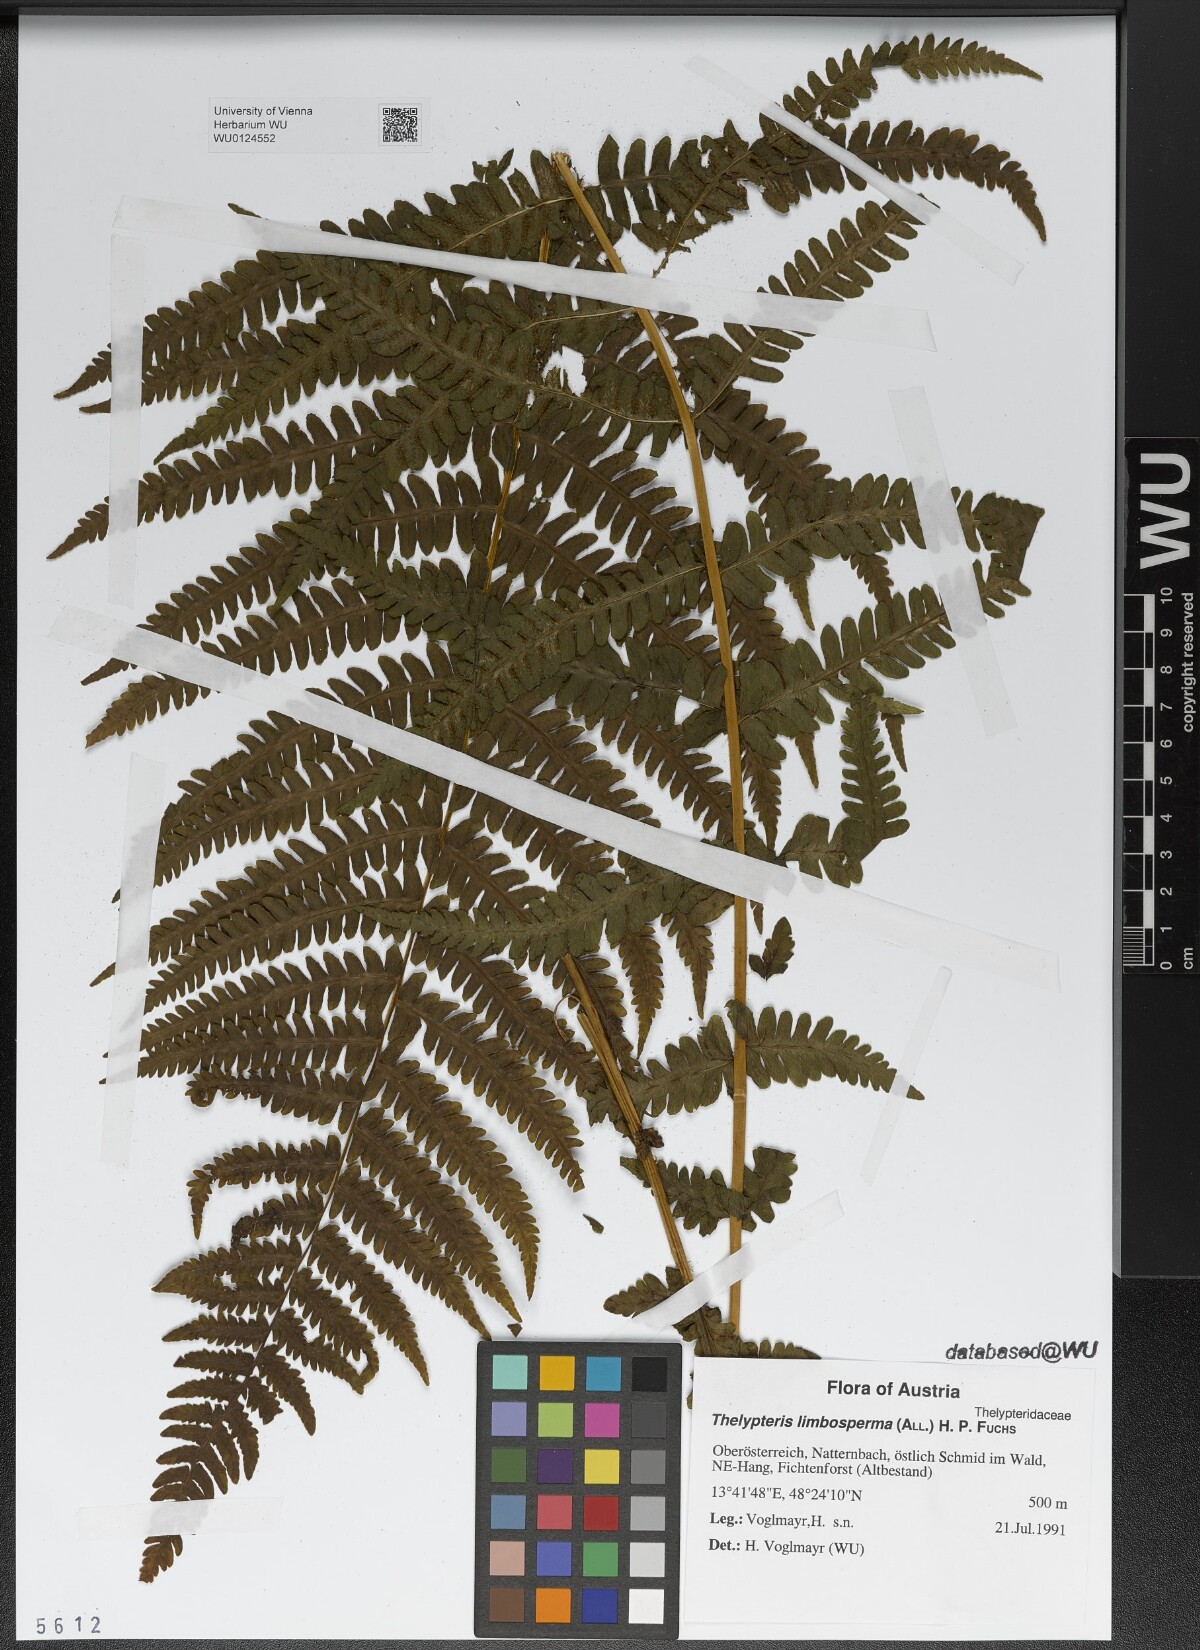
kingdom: Plantae
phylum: Tracheophyta
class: Polypodiopsida
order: Polypodiales
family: Thelypteridaceae
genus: Oreopteris
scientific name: Oreopteris limbosperma
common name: Lemon-scented fern
